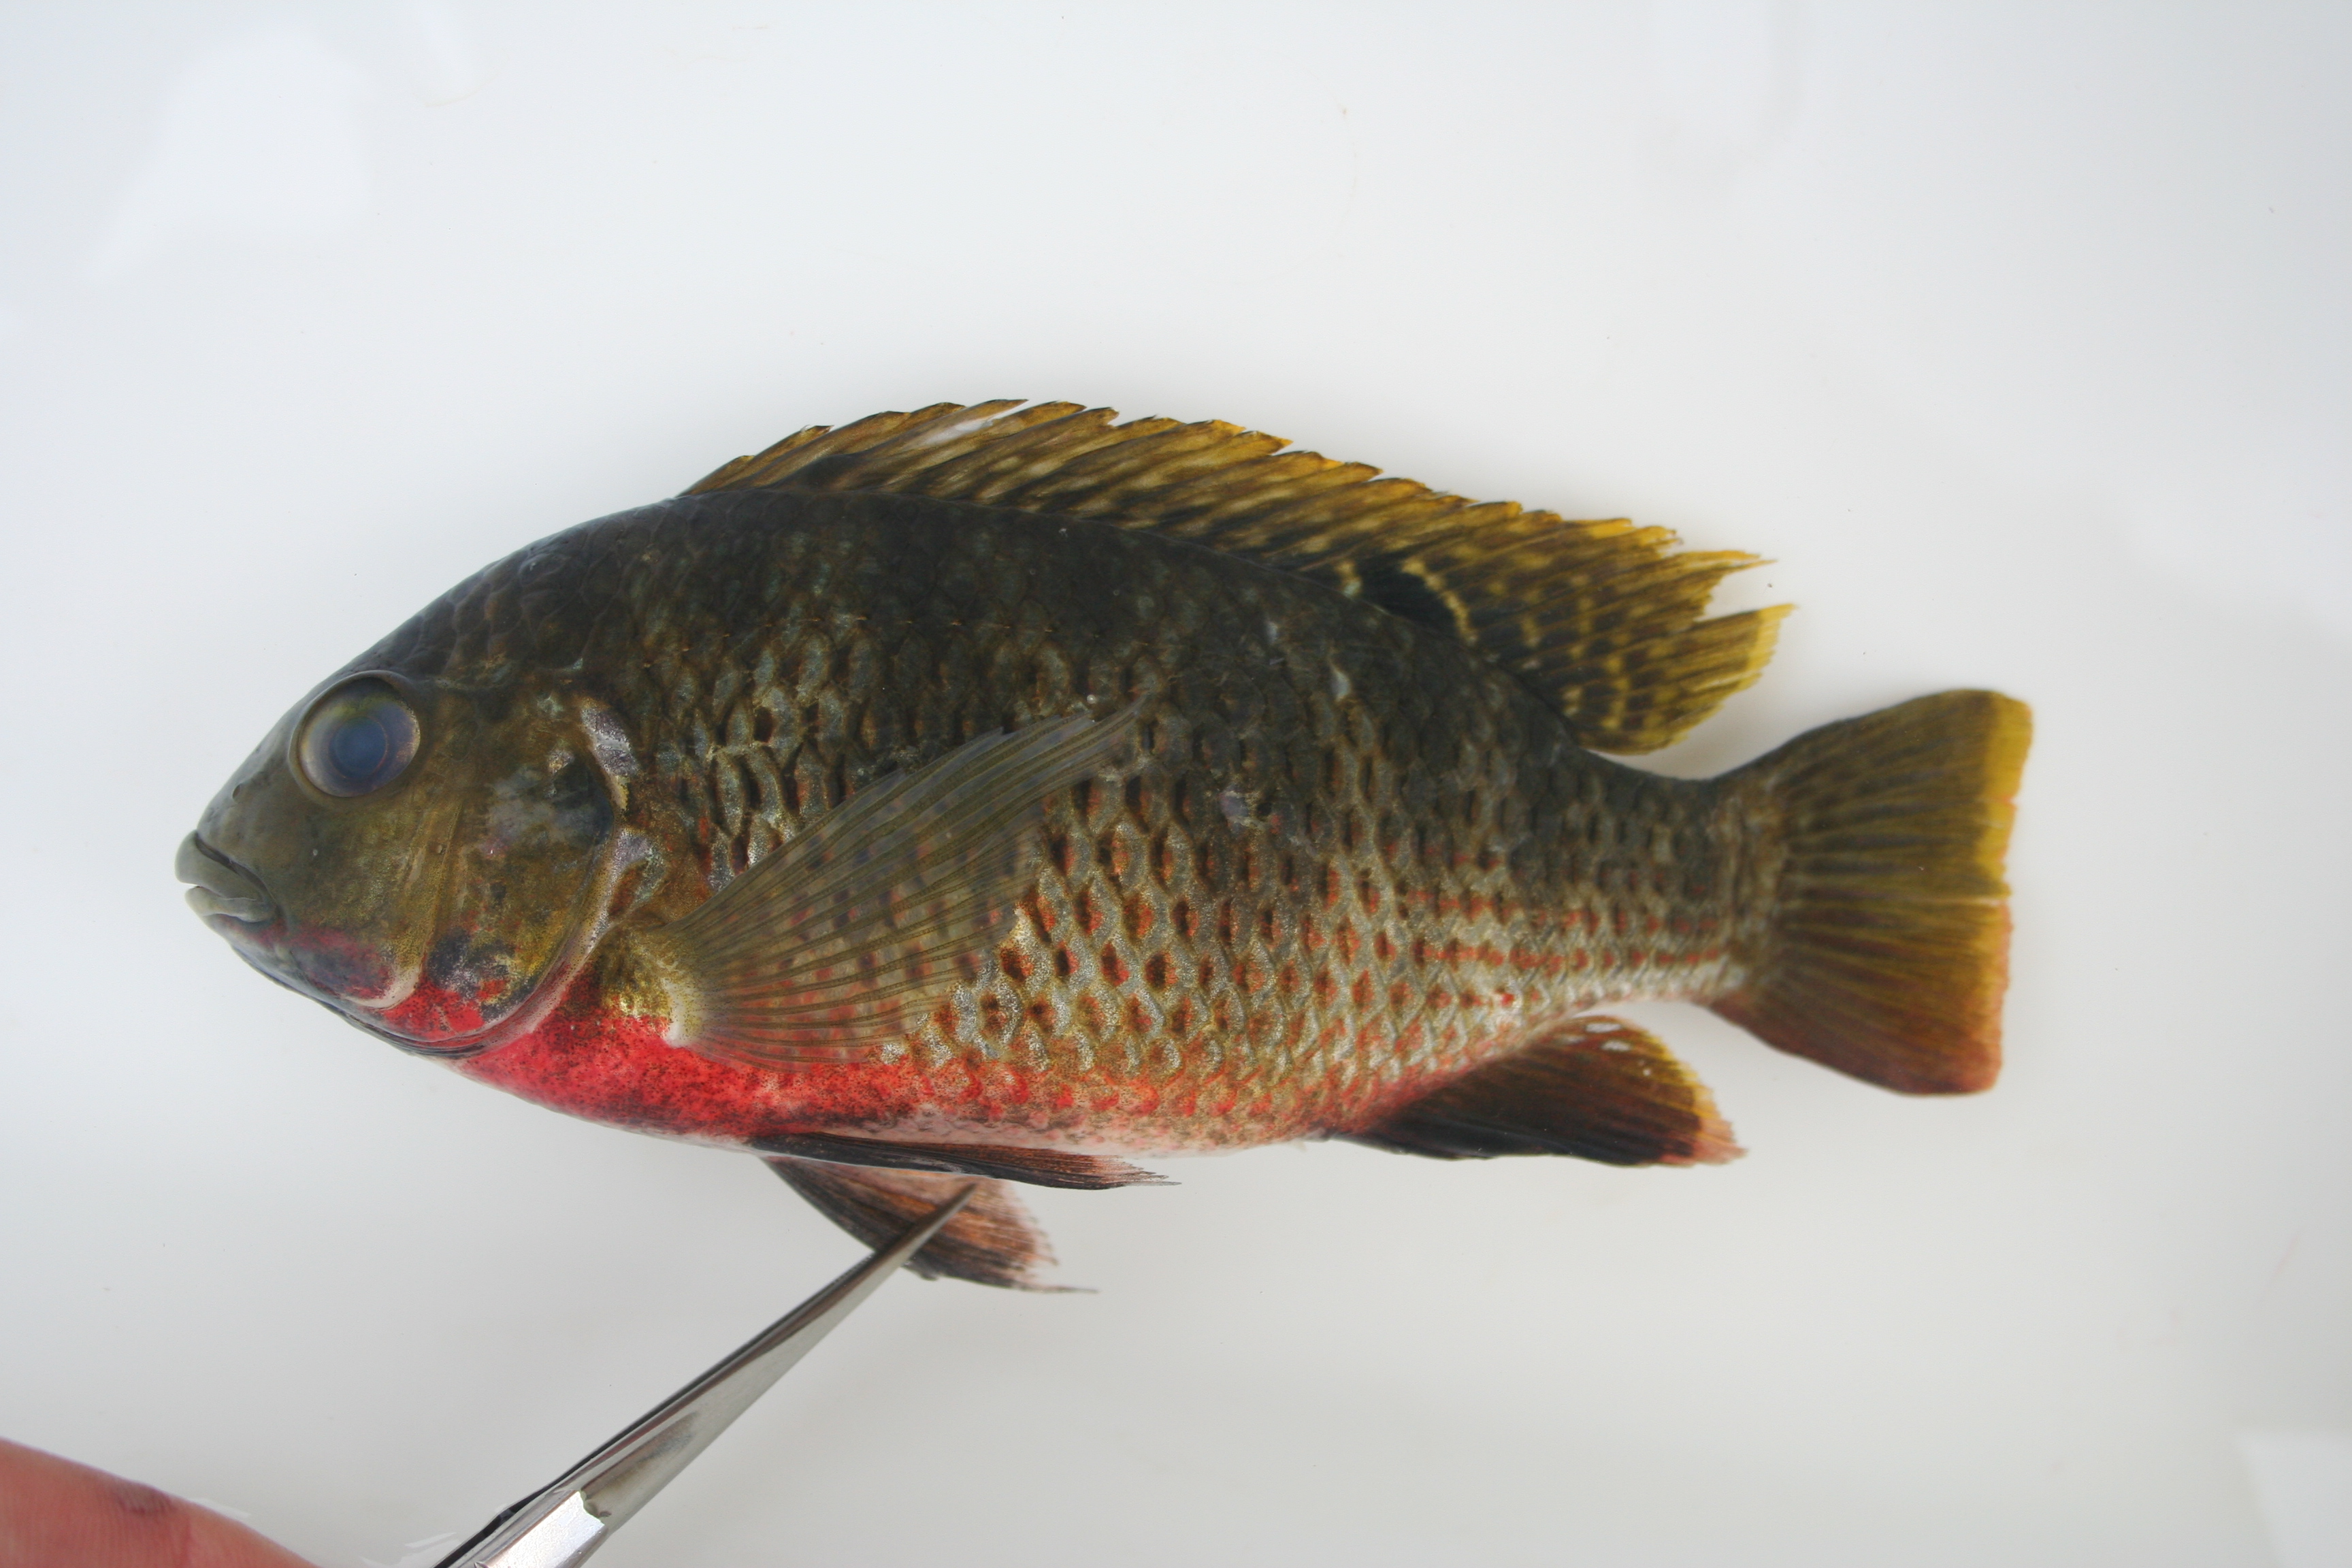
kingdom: Animalia
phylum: Chordata
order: Perciformes
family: Cichlidae
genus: Coptodon
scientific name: Coptodon rendalli
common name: Redbreast tilapia
